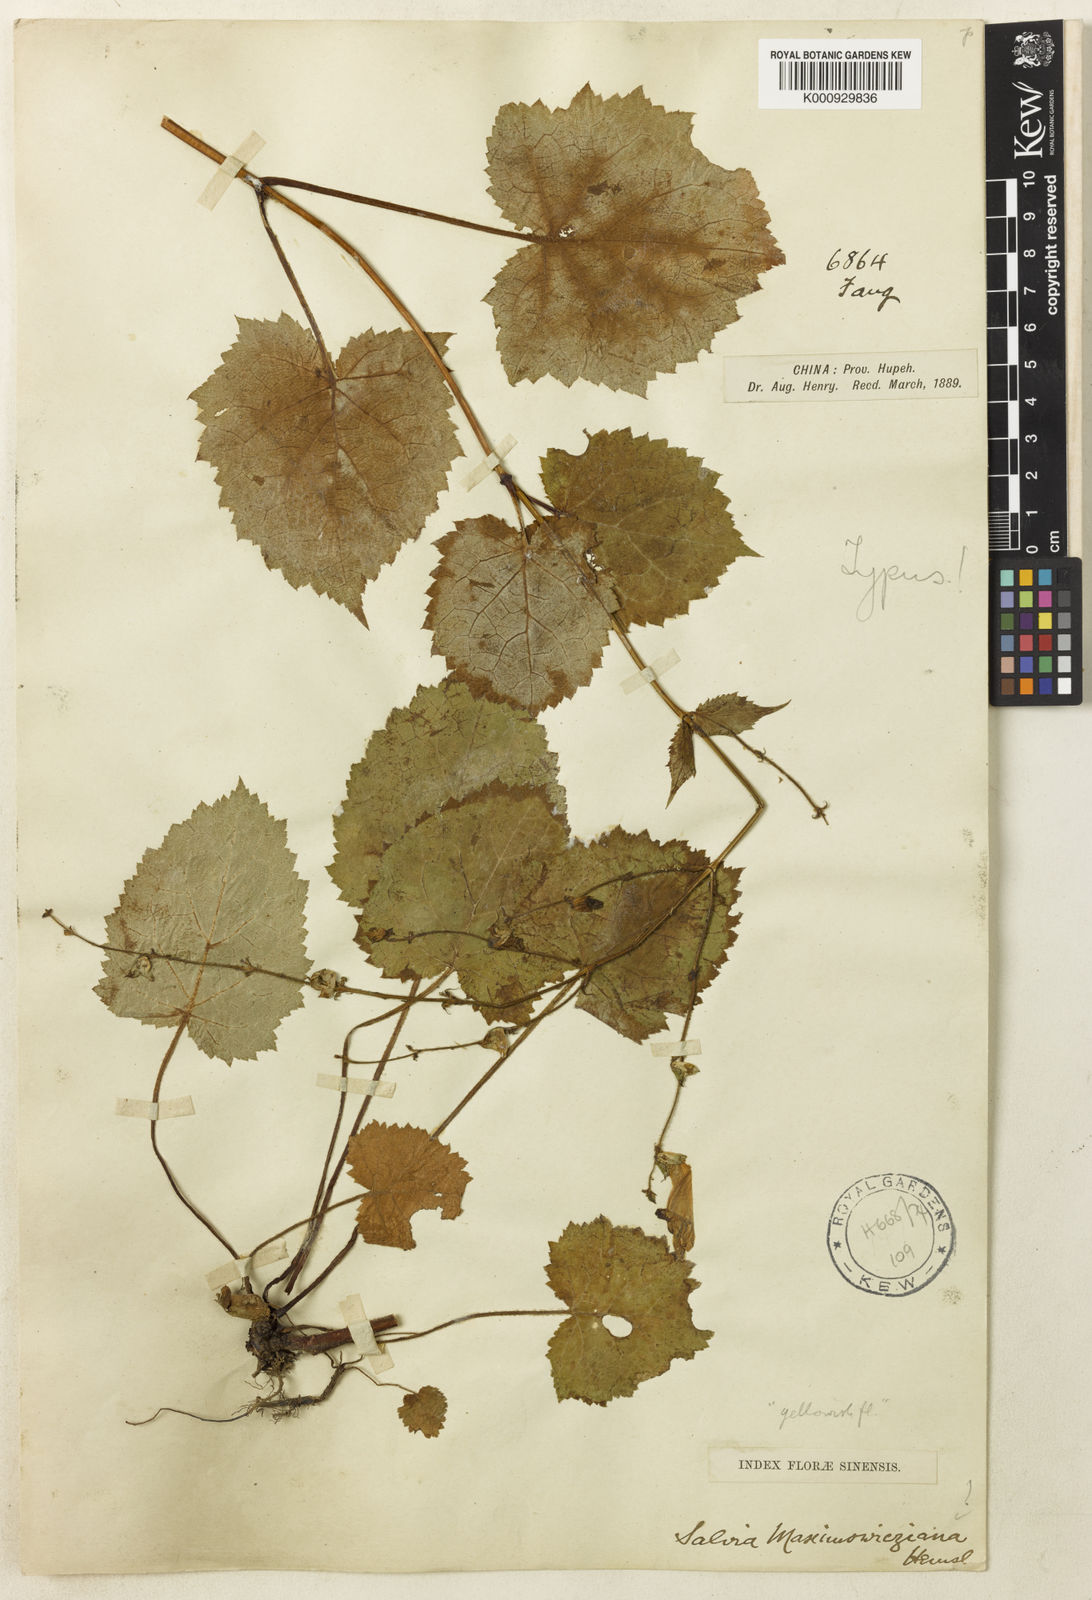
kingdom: Plantae
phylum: Tracheophyta
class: Magnoliopsida
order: Lamiales
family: Lamiaceae
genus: Salvia
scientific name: Salvia maximowicziana
